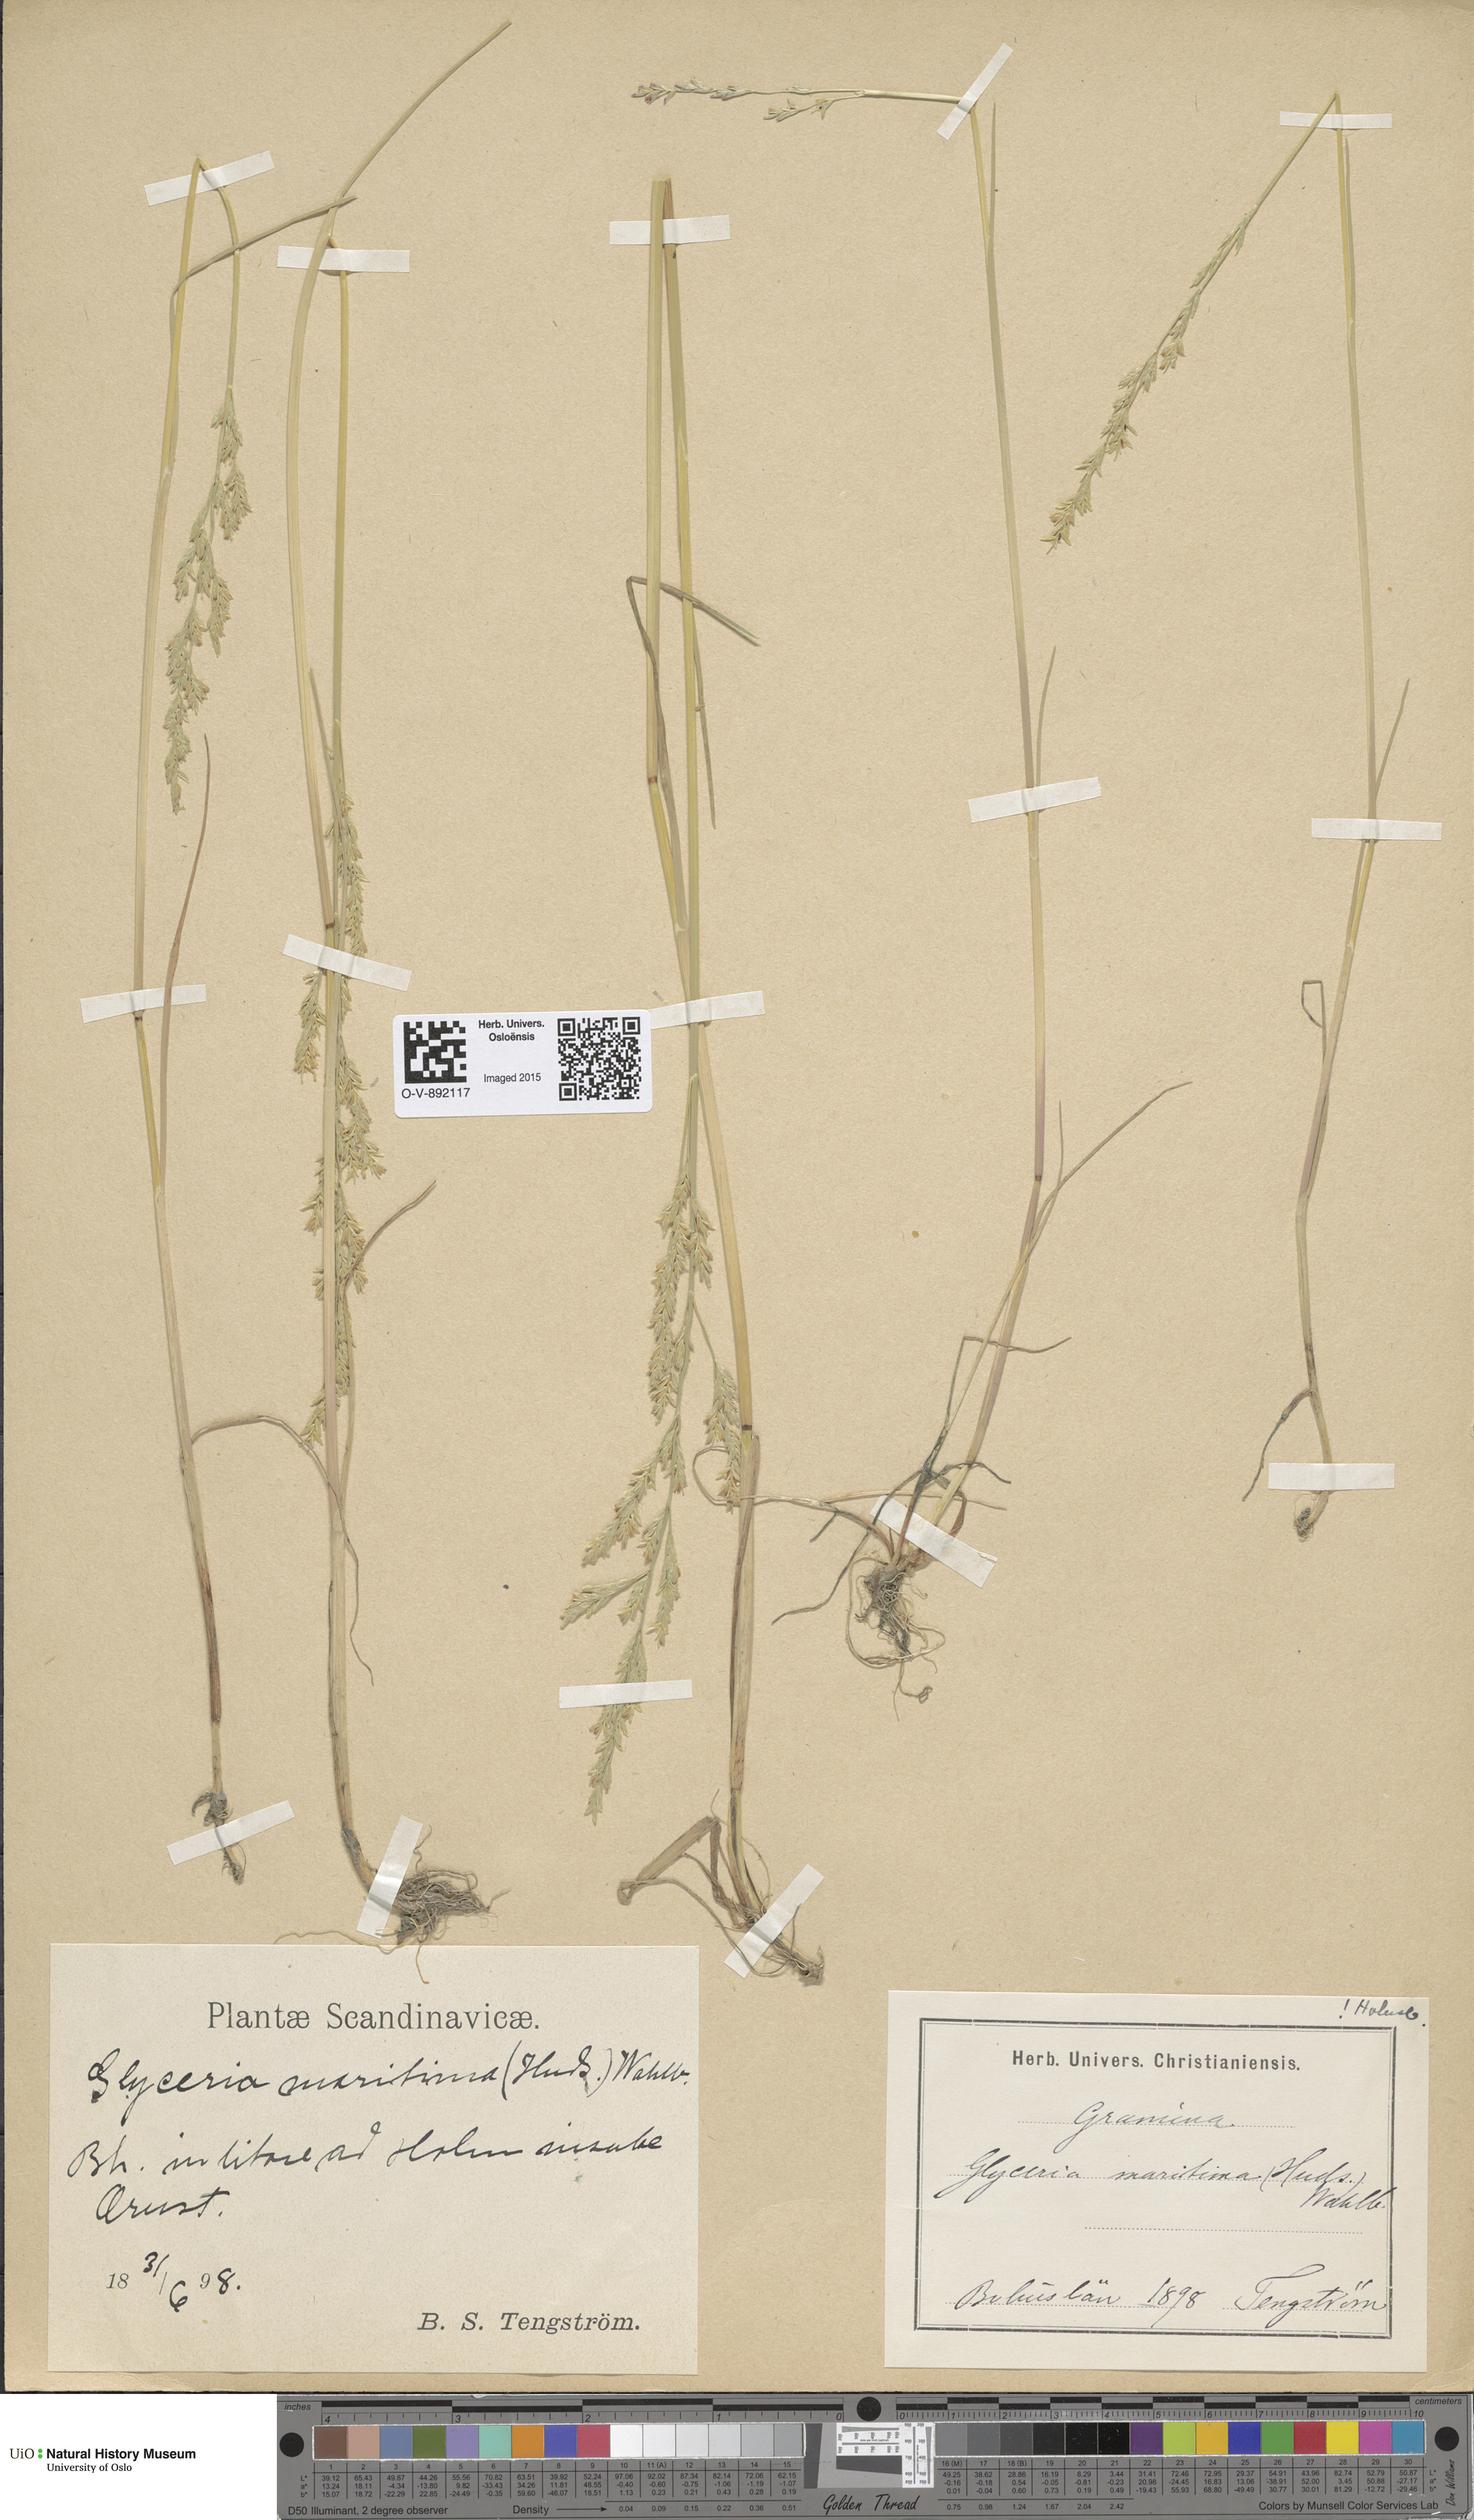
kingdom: Plantae
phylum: Tracheophyta
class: Liliopsida
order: Poales
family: Poaceae
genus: Puccinellia
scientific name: Puccinellia maritima
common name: Common saltmarsh grass
